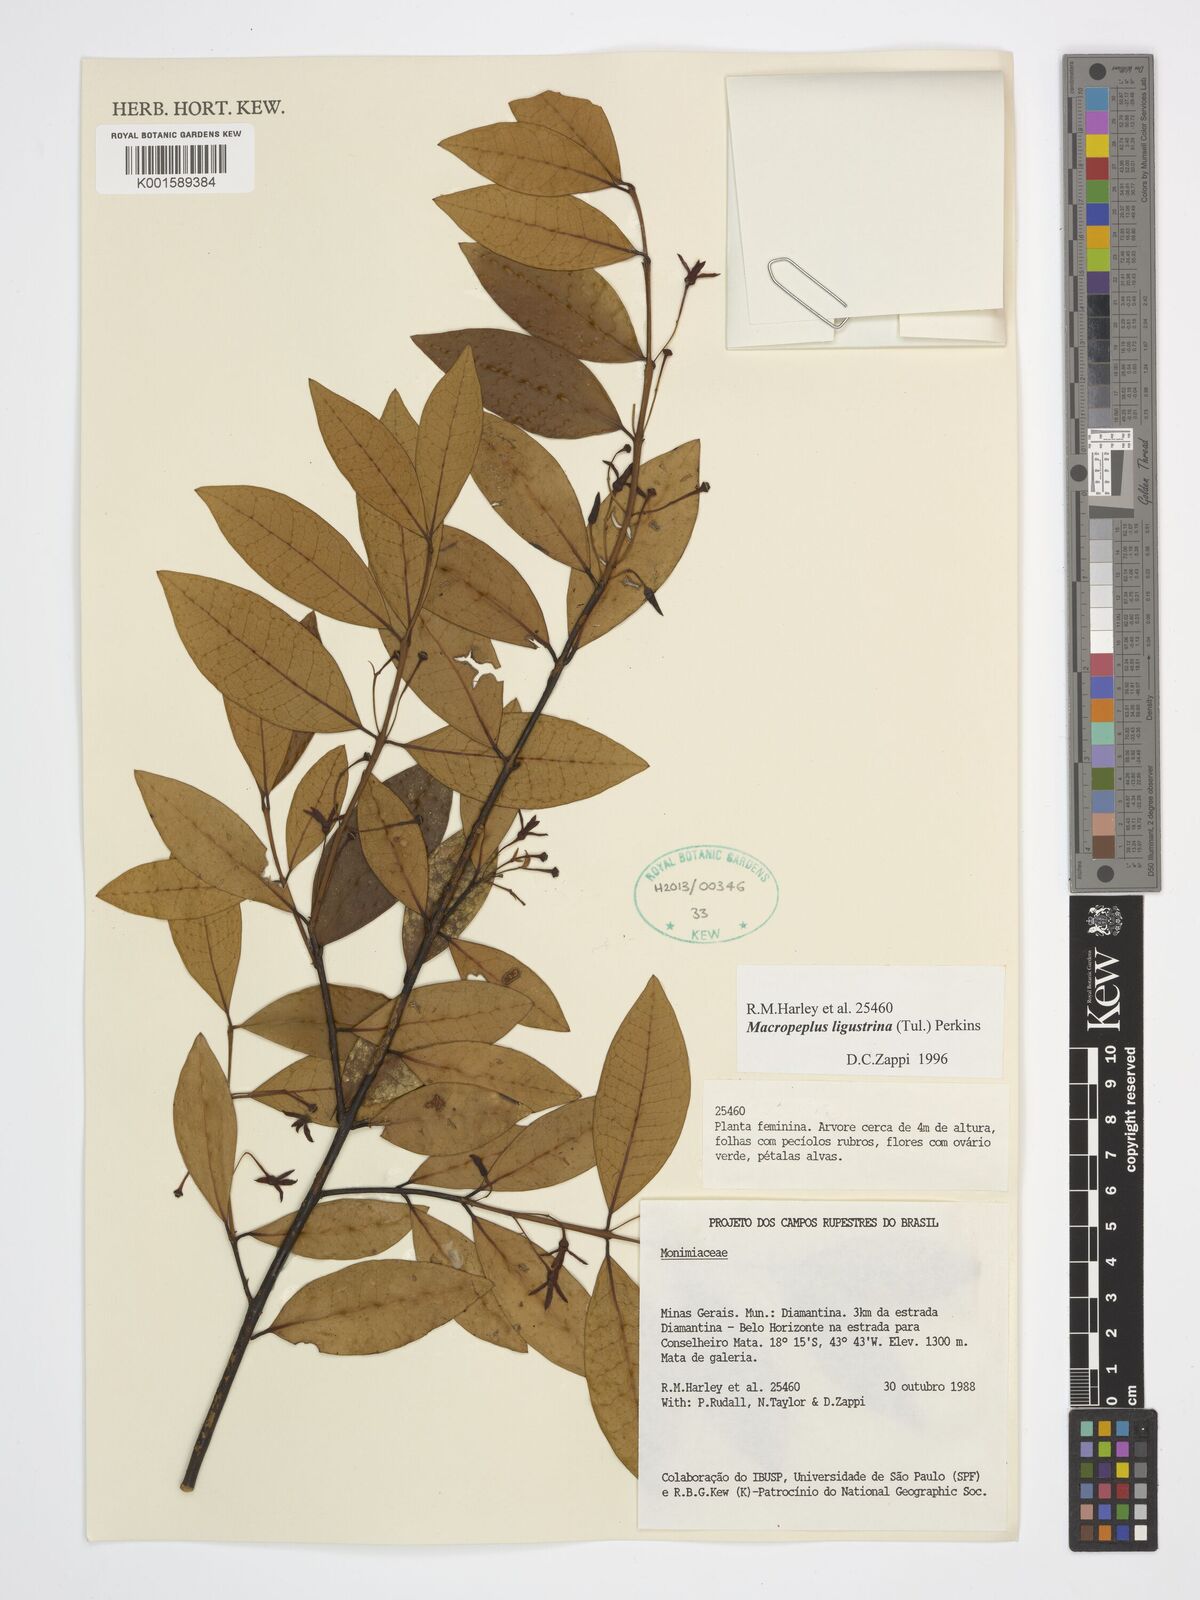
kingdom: Plantae
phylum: Tracheophyta
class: Magnoliopsida
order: Laurales
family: Monimiaceae
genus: Macropeplus
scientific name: Macropeplus ligustrinus
